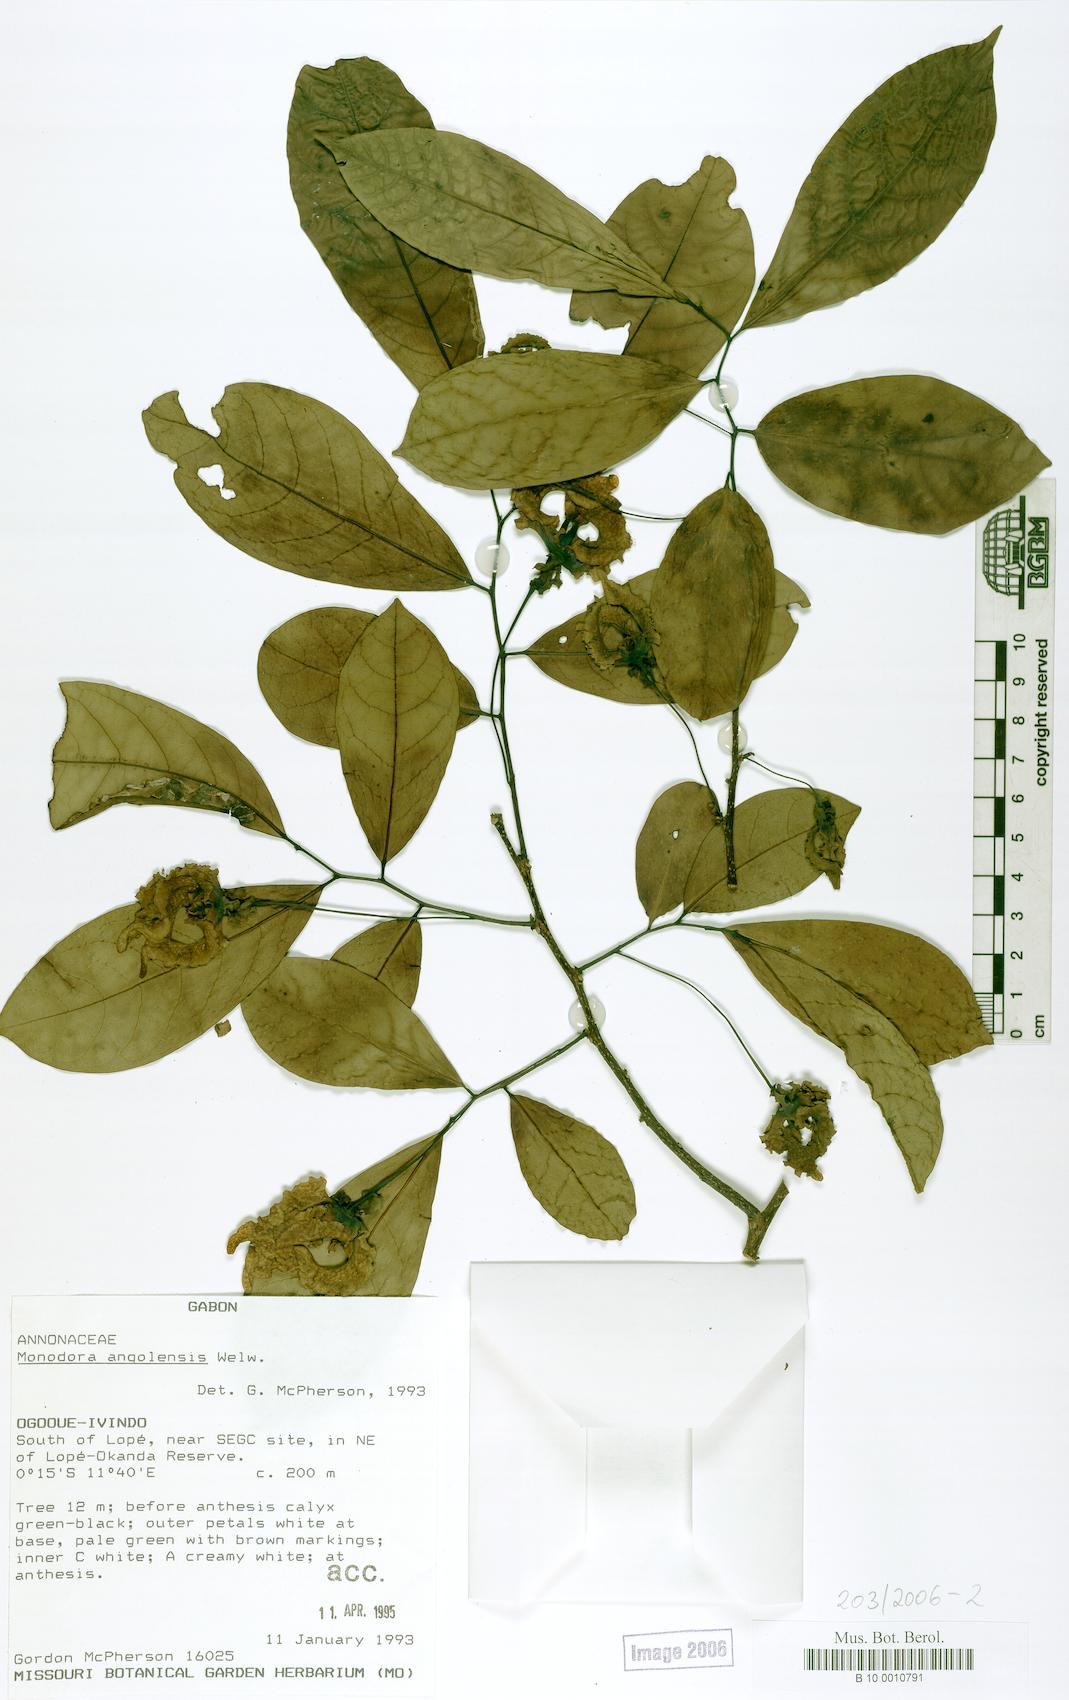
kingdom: Plantae
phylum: Tracheophyta
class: Magnoliopsida
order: Magnoliales
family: Annonaceae
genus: Monodora
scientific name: Monodora angolensis
